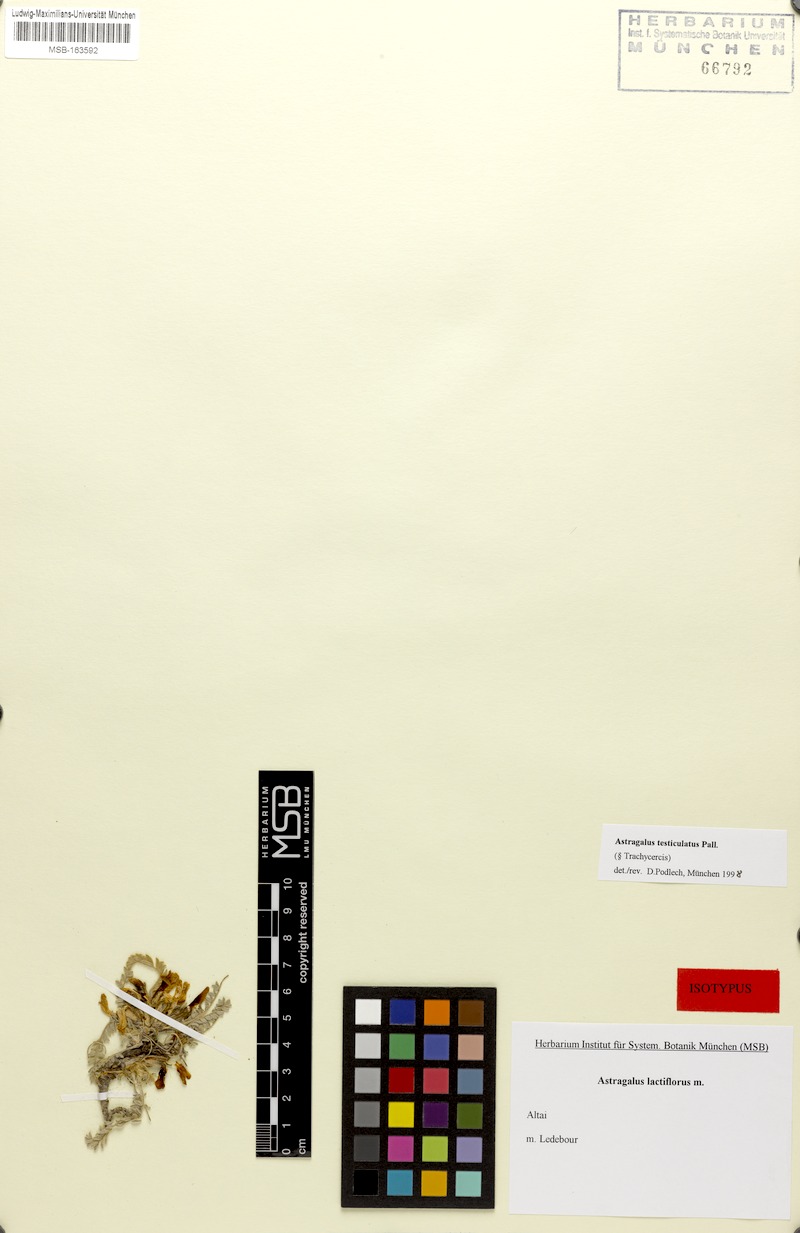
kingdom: Plantae
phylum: Tracheophyta
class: Magnoliopsida
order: Fabales
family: Fabaceae
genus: Astragalus
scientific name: Astragalus testiculatus
